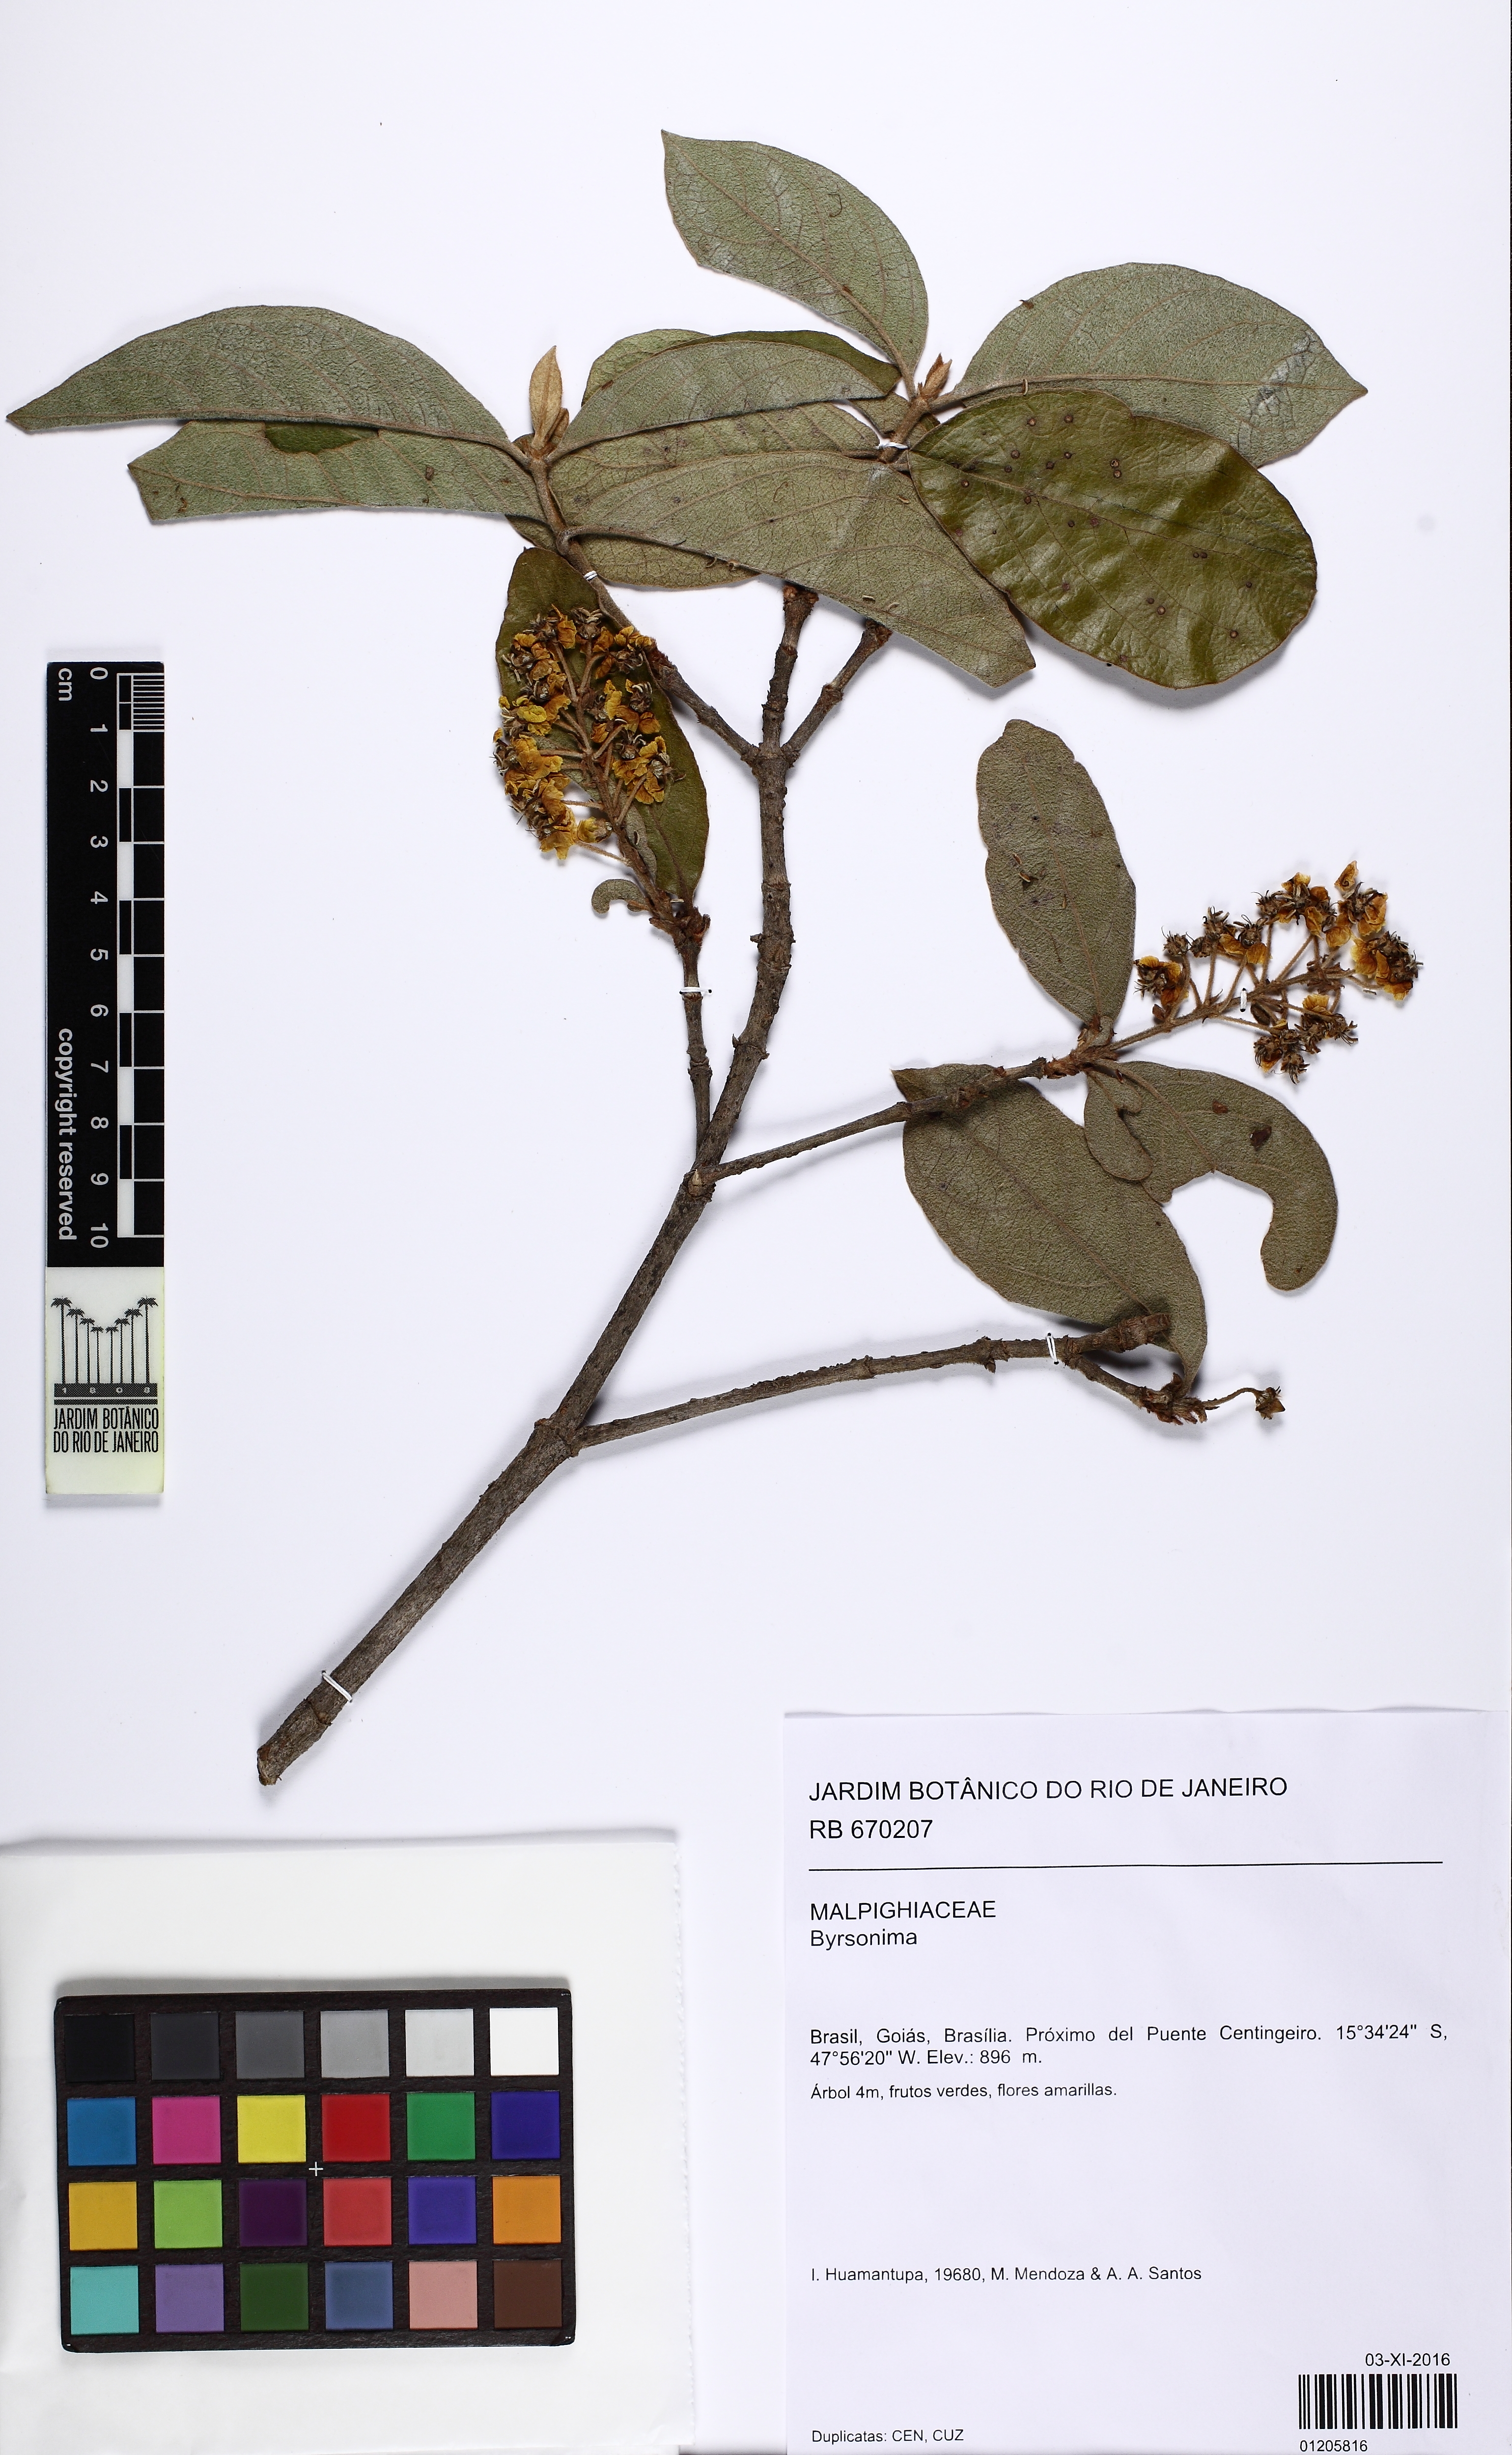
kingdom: Plantae
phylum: Tracheophyta
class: Magnoliopsida
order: Malpighiales
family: Malpighiaceae
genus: Byrsonima
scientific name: Byrsonima
